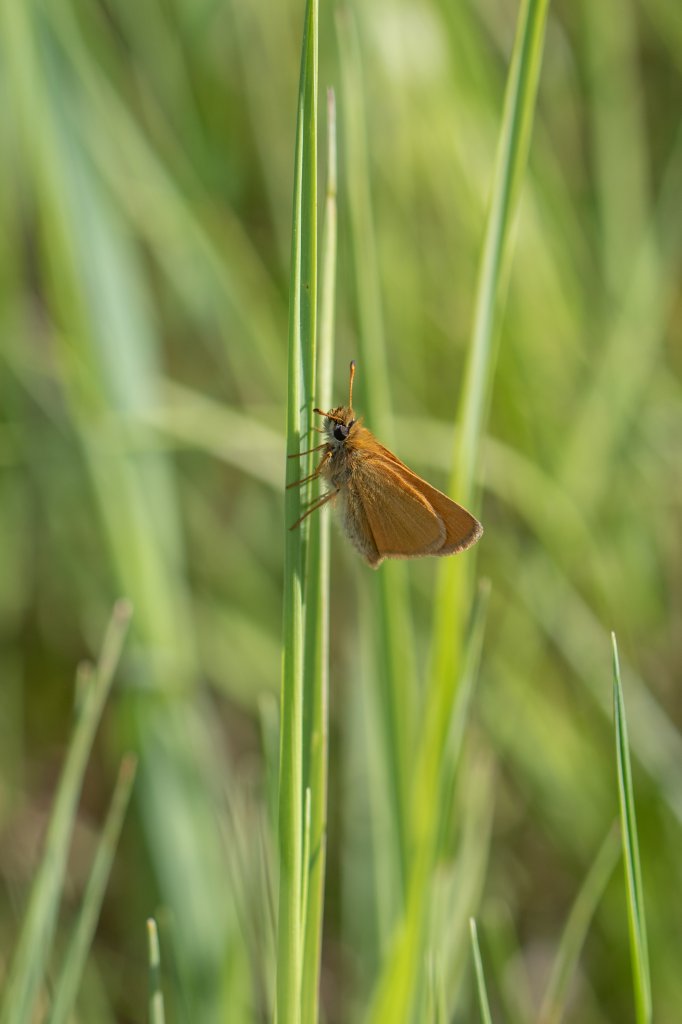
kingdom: Animalia
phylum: Arthropoda
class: Insecta
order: Lepidoptera
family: Hesperiidae
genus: Thymelicus
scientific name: Thymelicus lineola
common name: European Skipper
